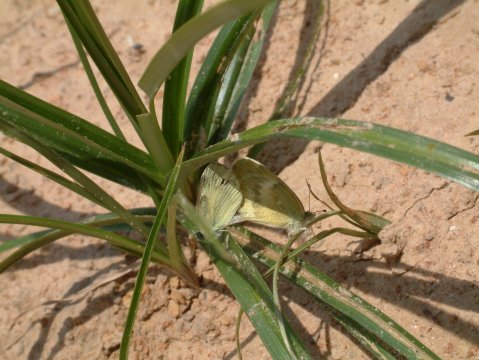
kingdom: Animalia
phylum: Arthropoda
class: Insecta
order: Lepidoptera
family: Pieridae
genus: Nathalis
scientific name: Nathalis iole
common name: Dainty Sulphur
